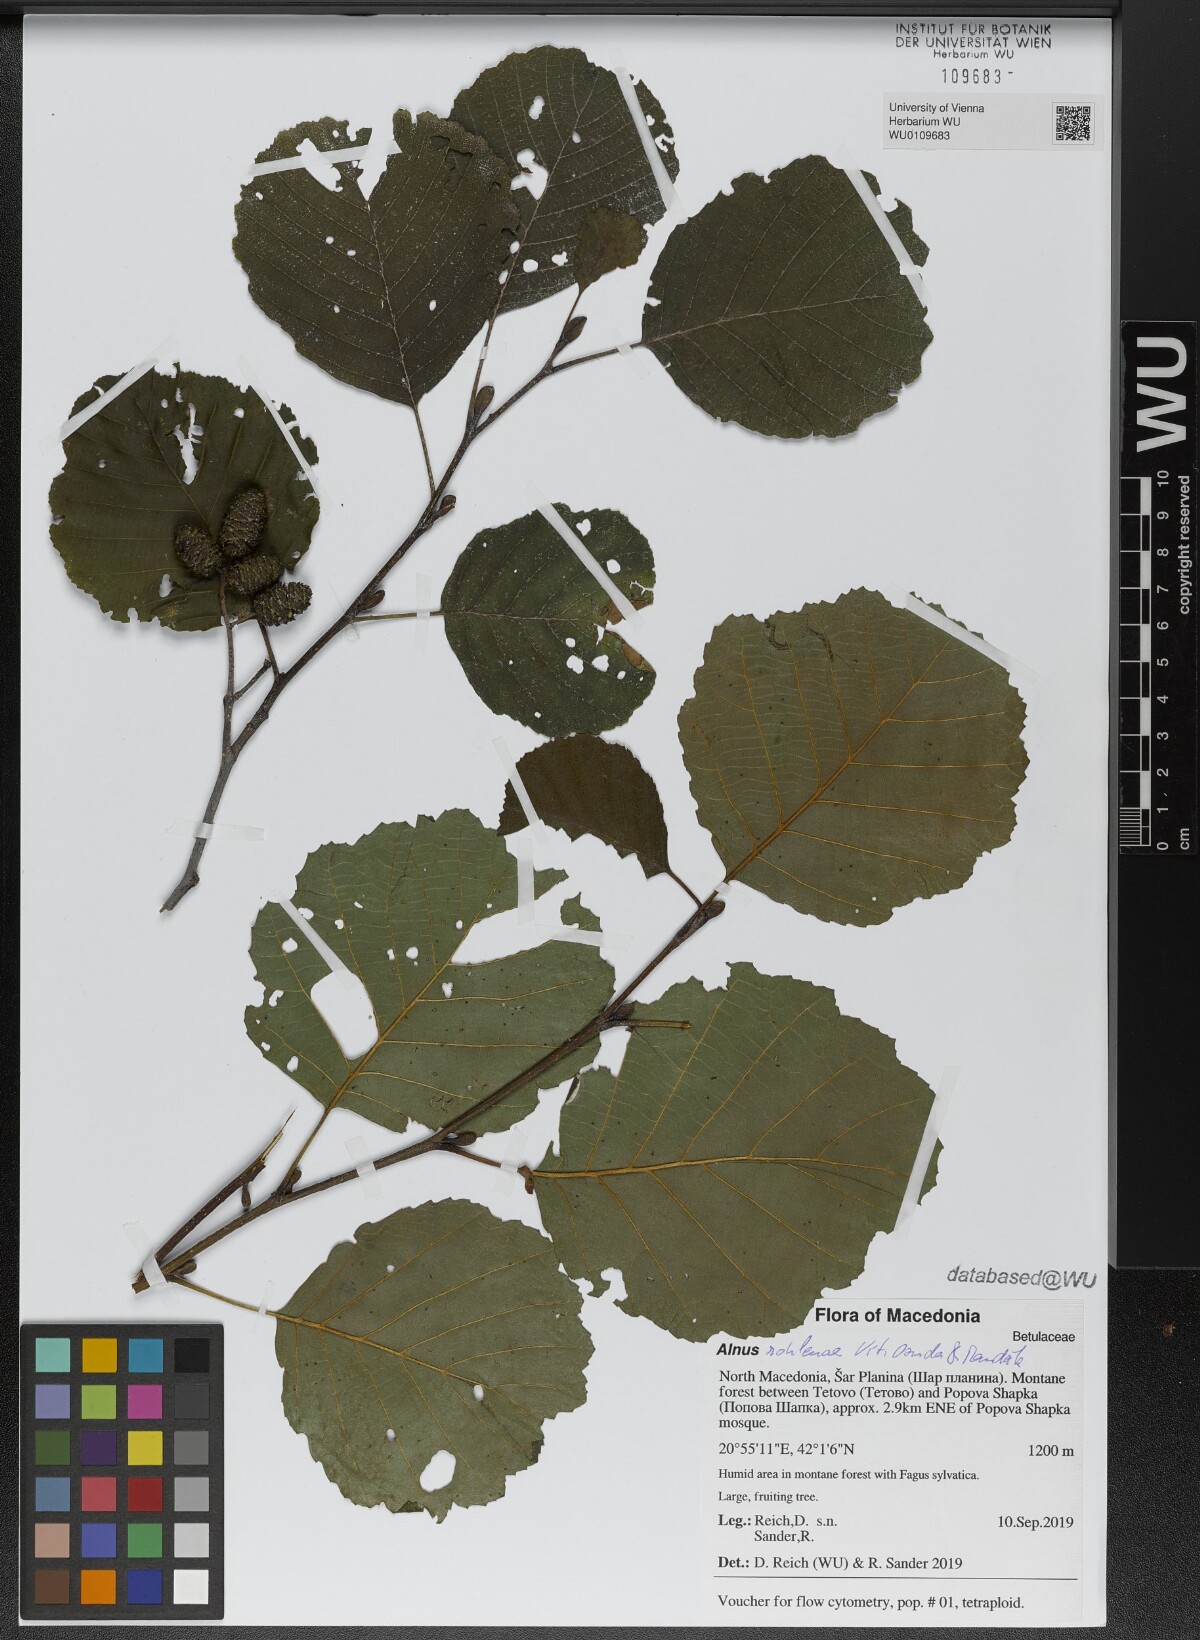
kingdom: Plantae
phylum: Tracheophyta
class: Magnoliopsida
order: Fagales
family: Betulaceae
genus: Alnus
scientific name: Alnus rohlenae
